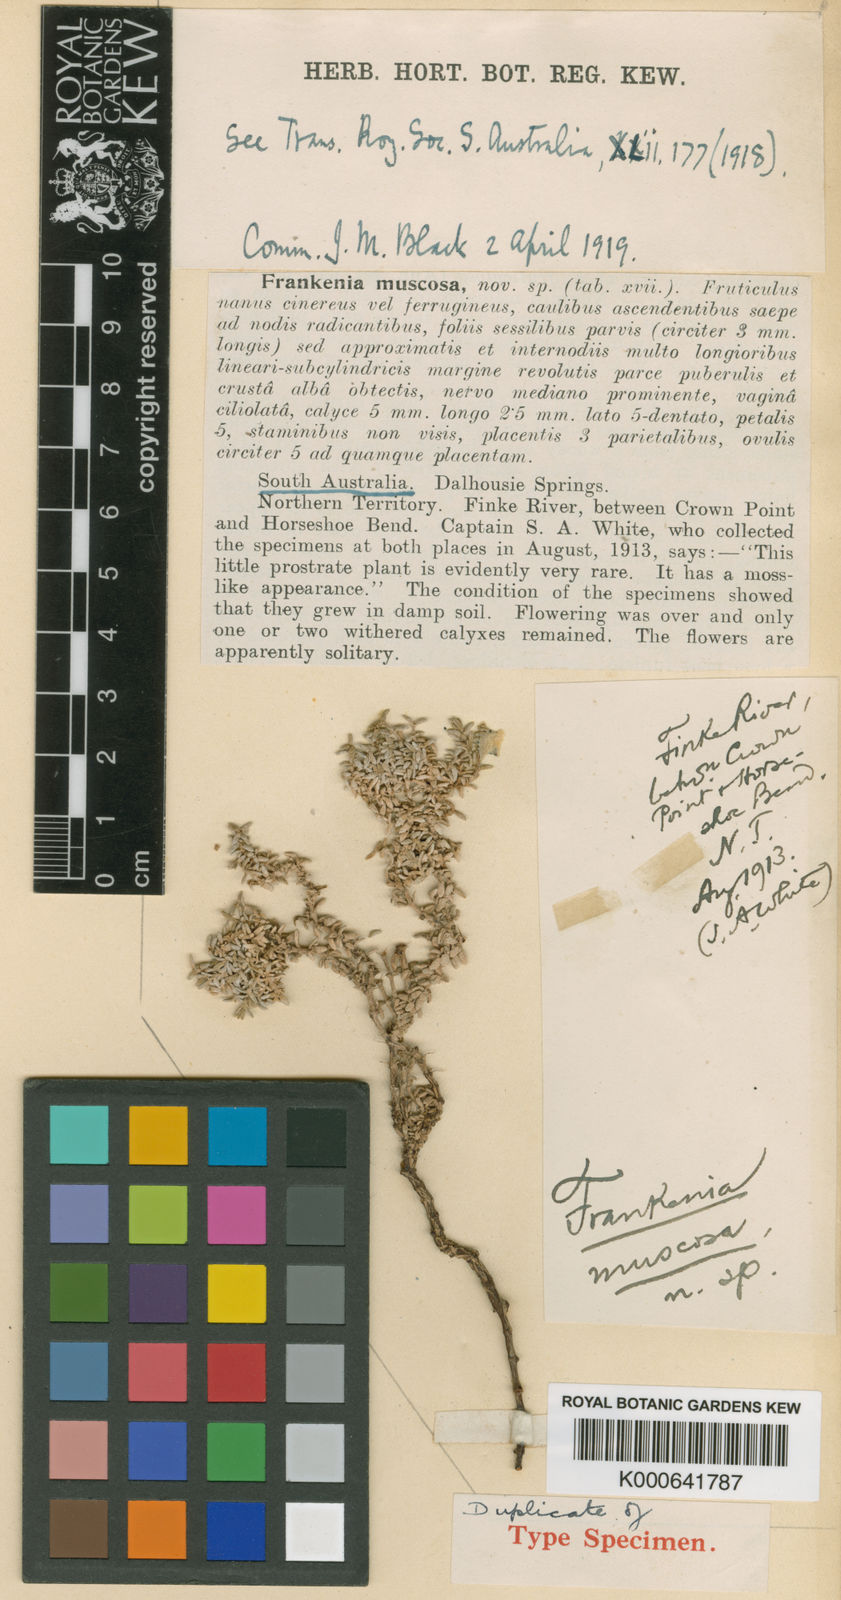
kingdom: Plantae
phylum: Tracheophyta
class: Magnoliopsida
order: Caryophyllales
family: Frankeniaceae
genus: Frankenia
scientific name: Frankenia muscosa
